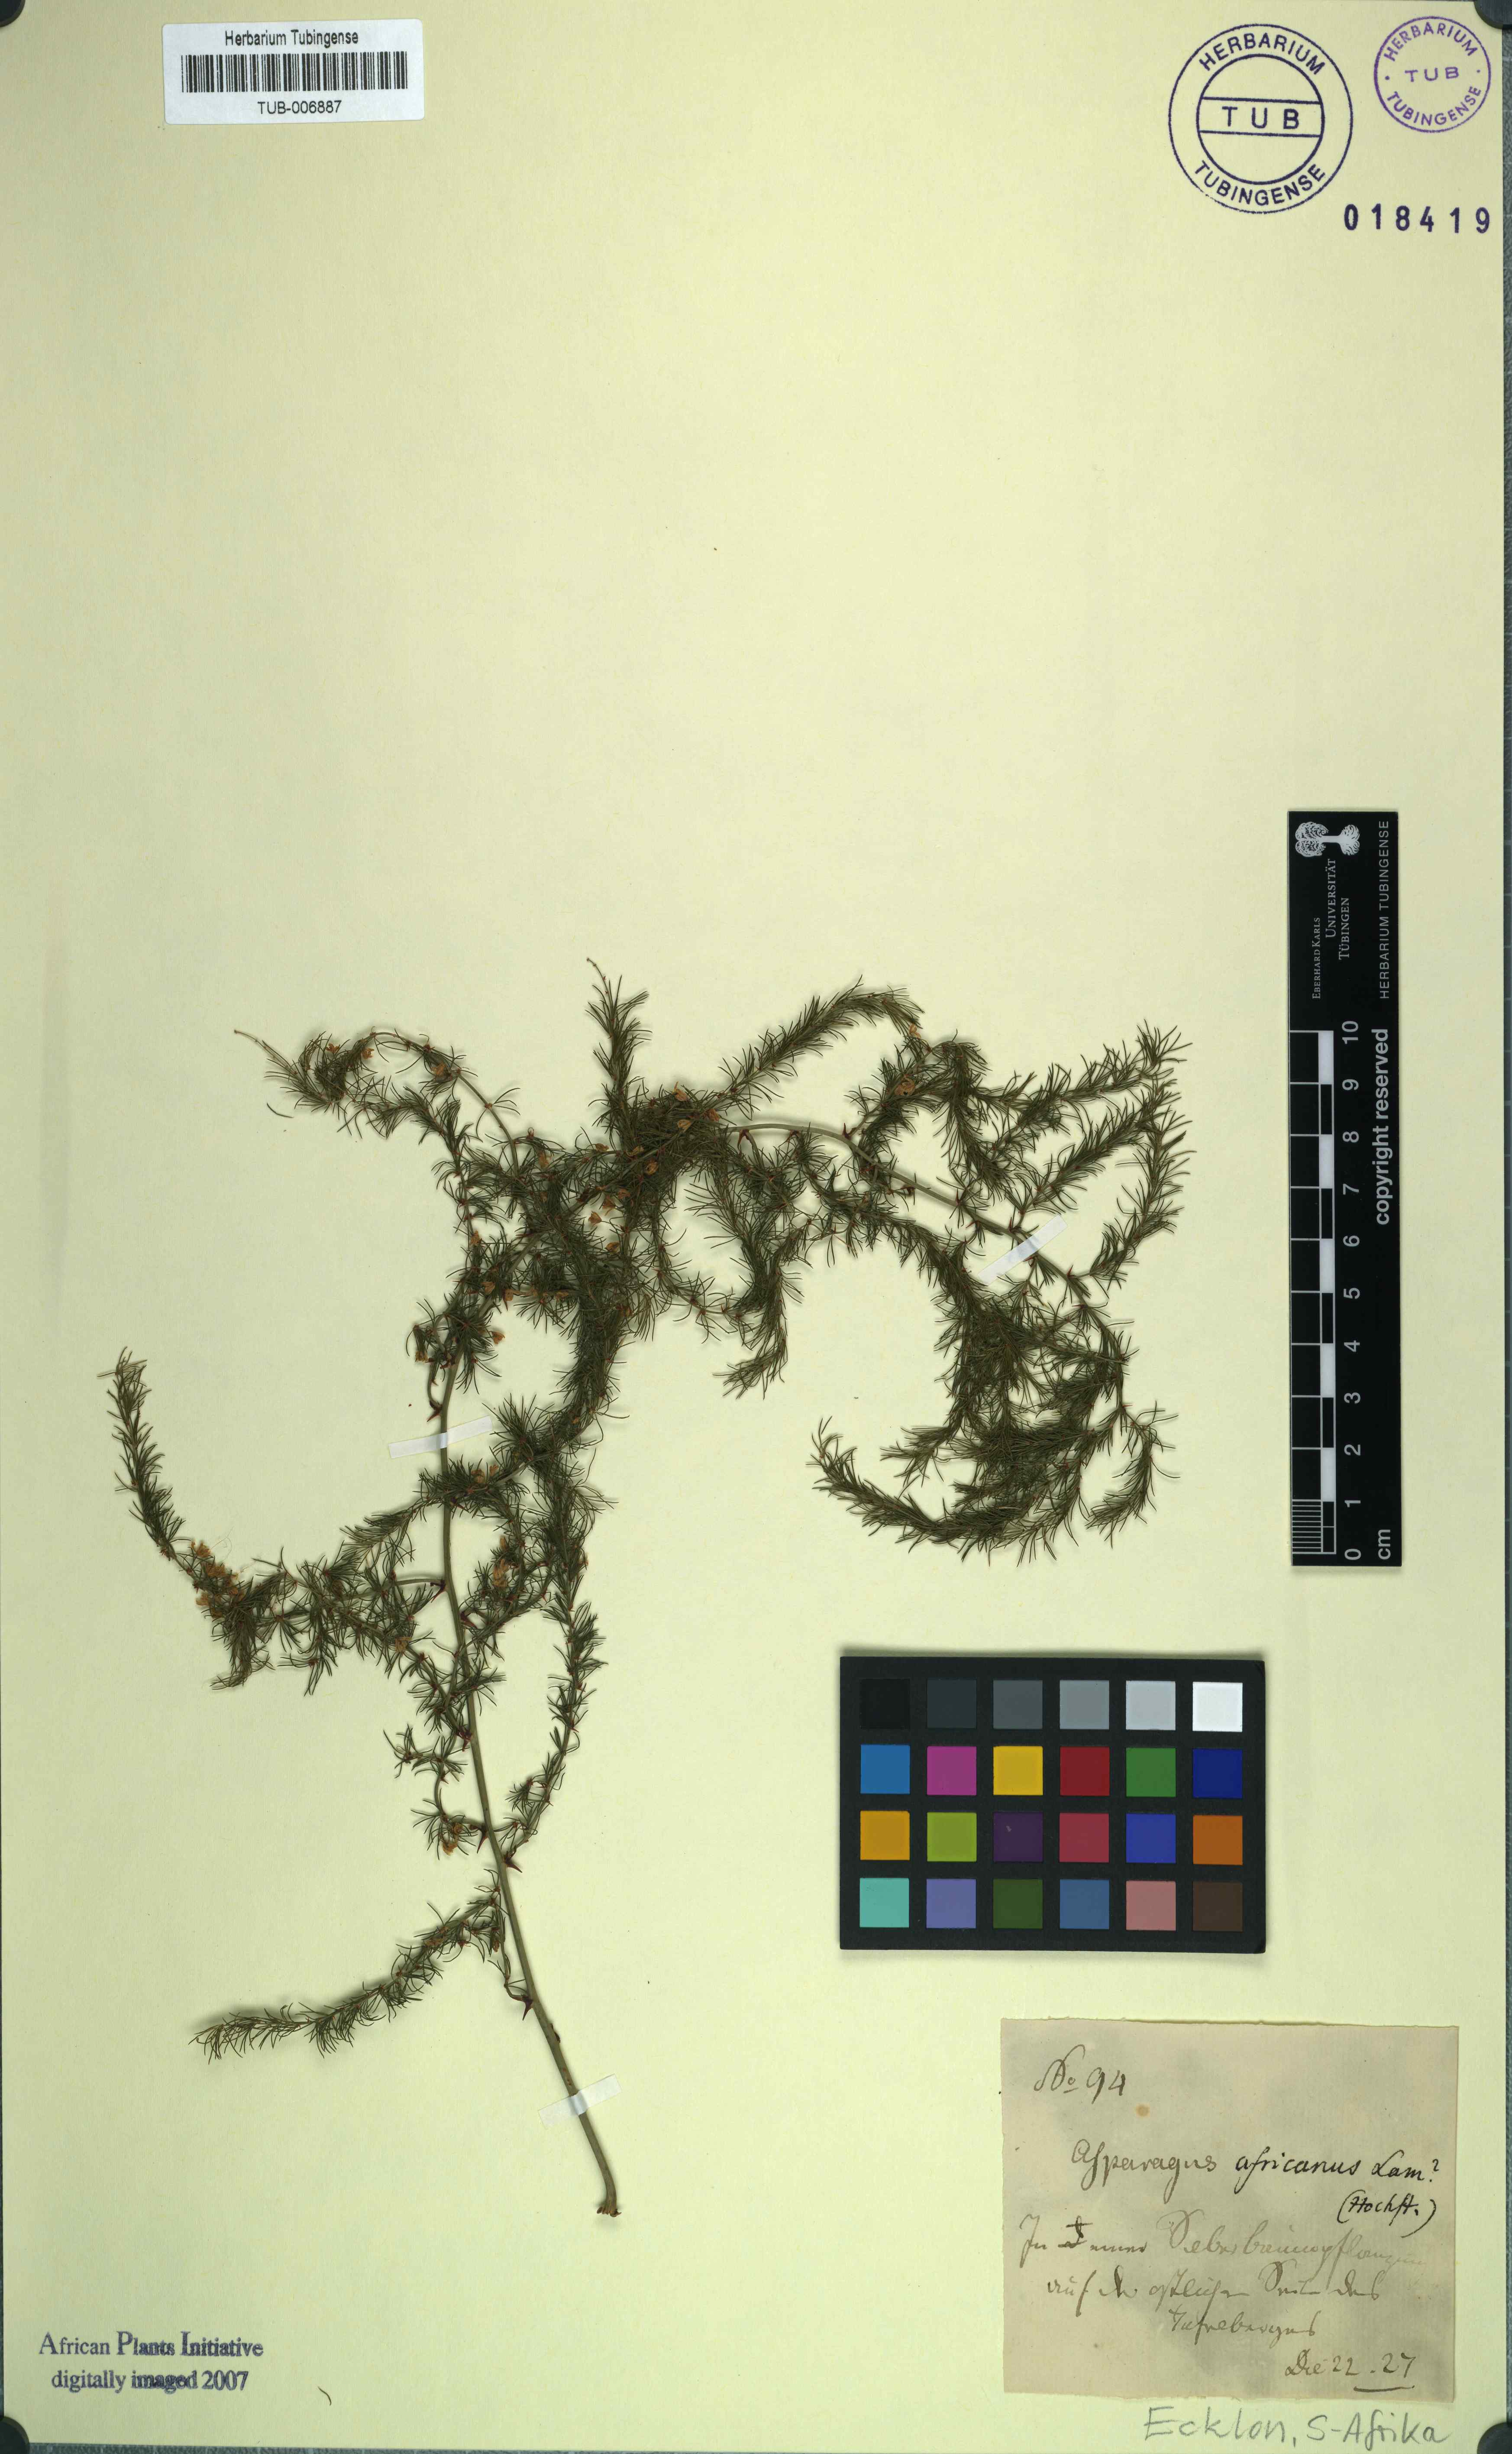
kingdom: Plantae
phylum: Tracheophyta
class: Liliopsida
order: Asparagales
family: Asparagaceae
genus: Asparagus
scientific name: Asparagus africanus
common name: Asparagus-fern
